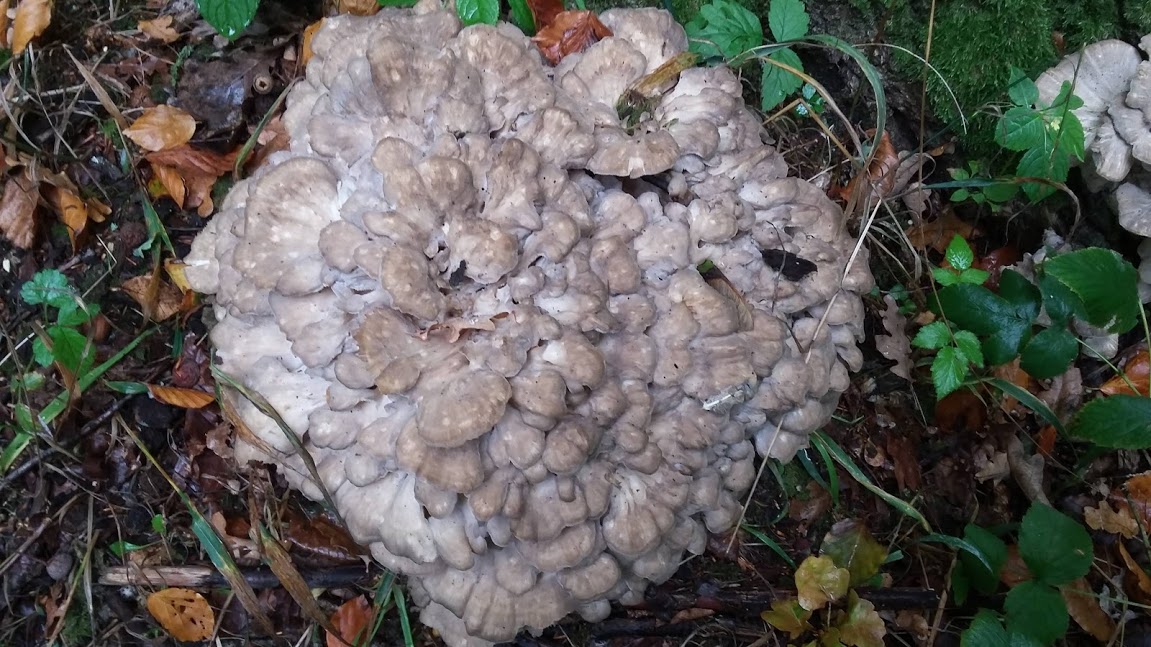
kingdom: Fungi
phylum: Basidiomycota
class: Agaricomycetes
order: Polyporales
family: Grifolaceae
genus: Grifola
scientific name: Grifola frondosa
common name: tueporesvamp
